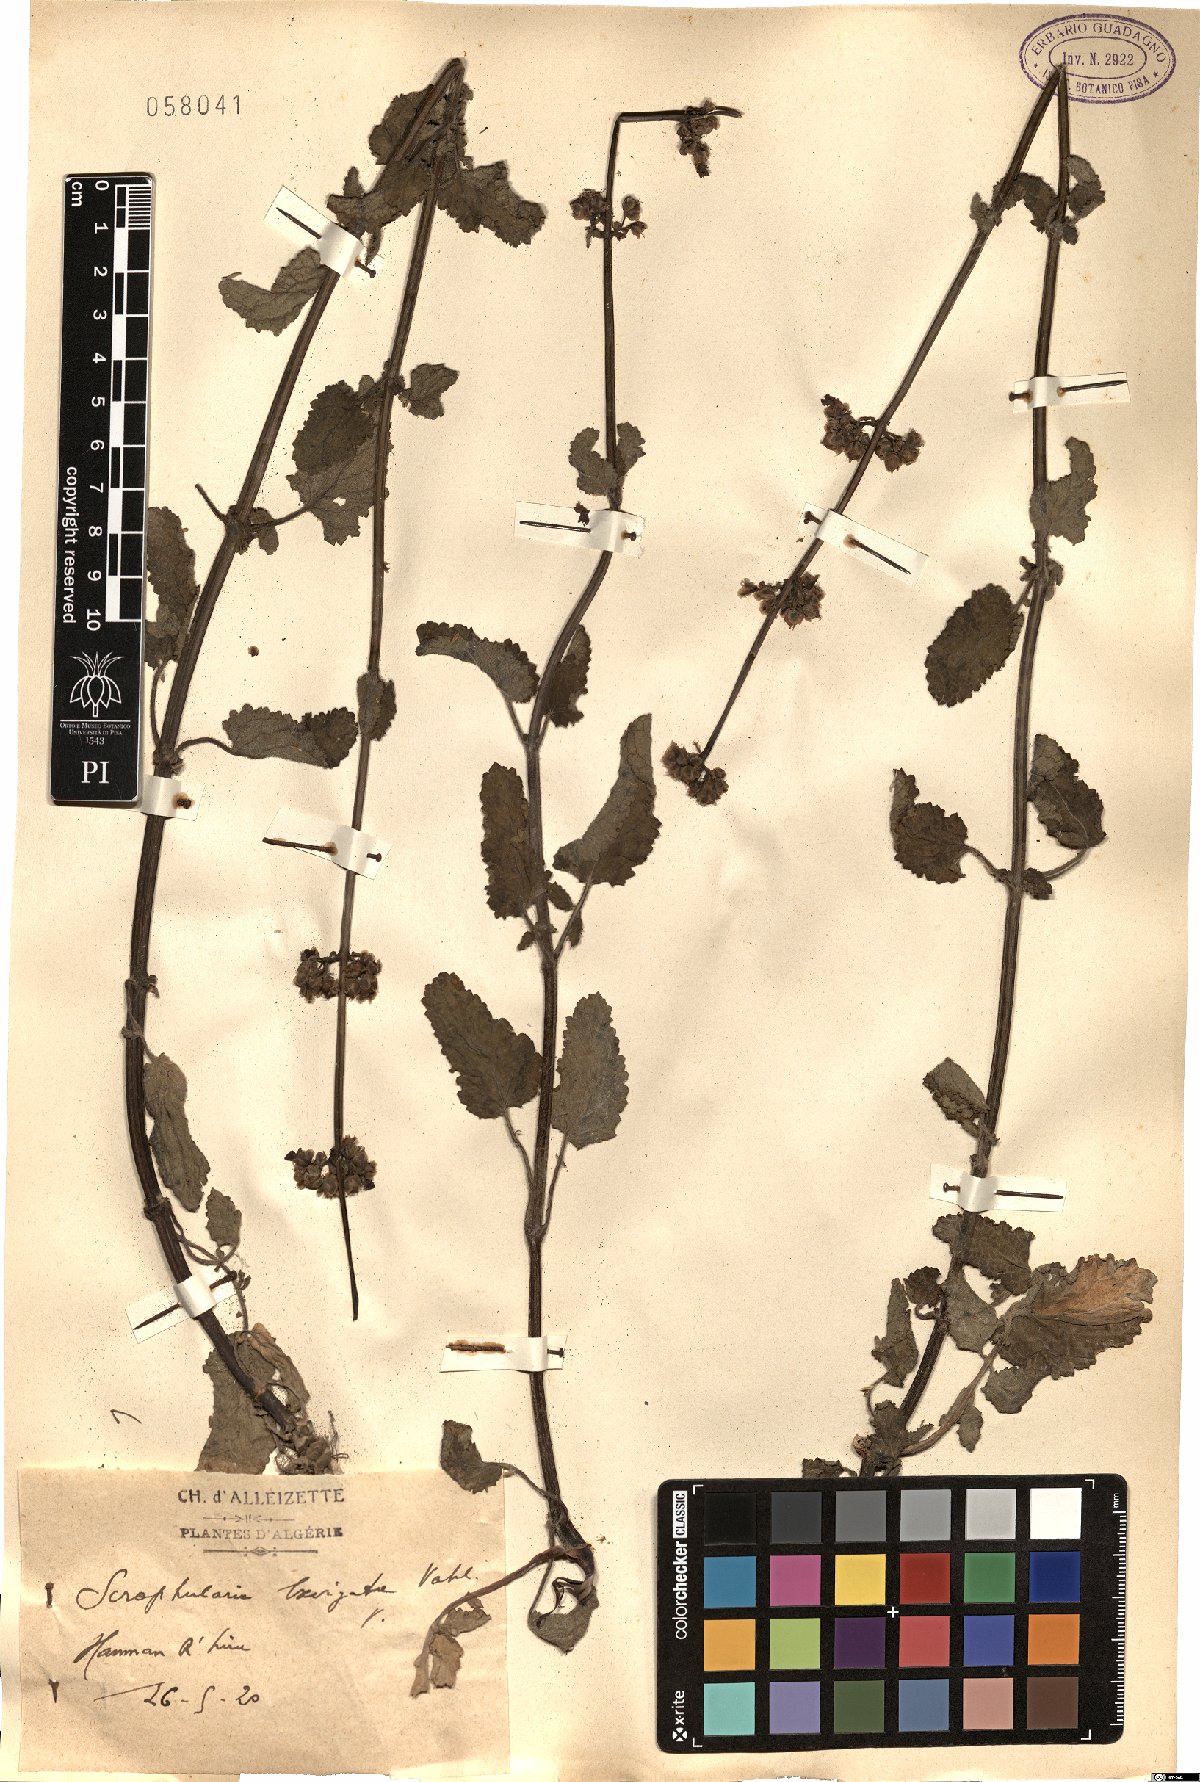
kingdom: Plantae
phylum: Tracheophyta
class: Magnoliopsida
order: Lamiales
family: Scrophulariaceae
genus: Scrophularia
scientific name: Scrophularia laevigata
